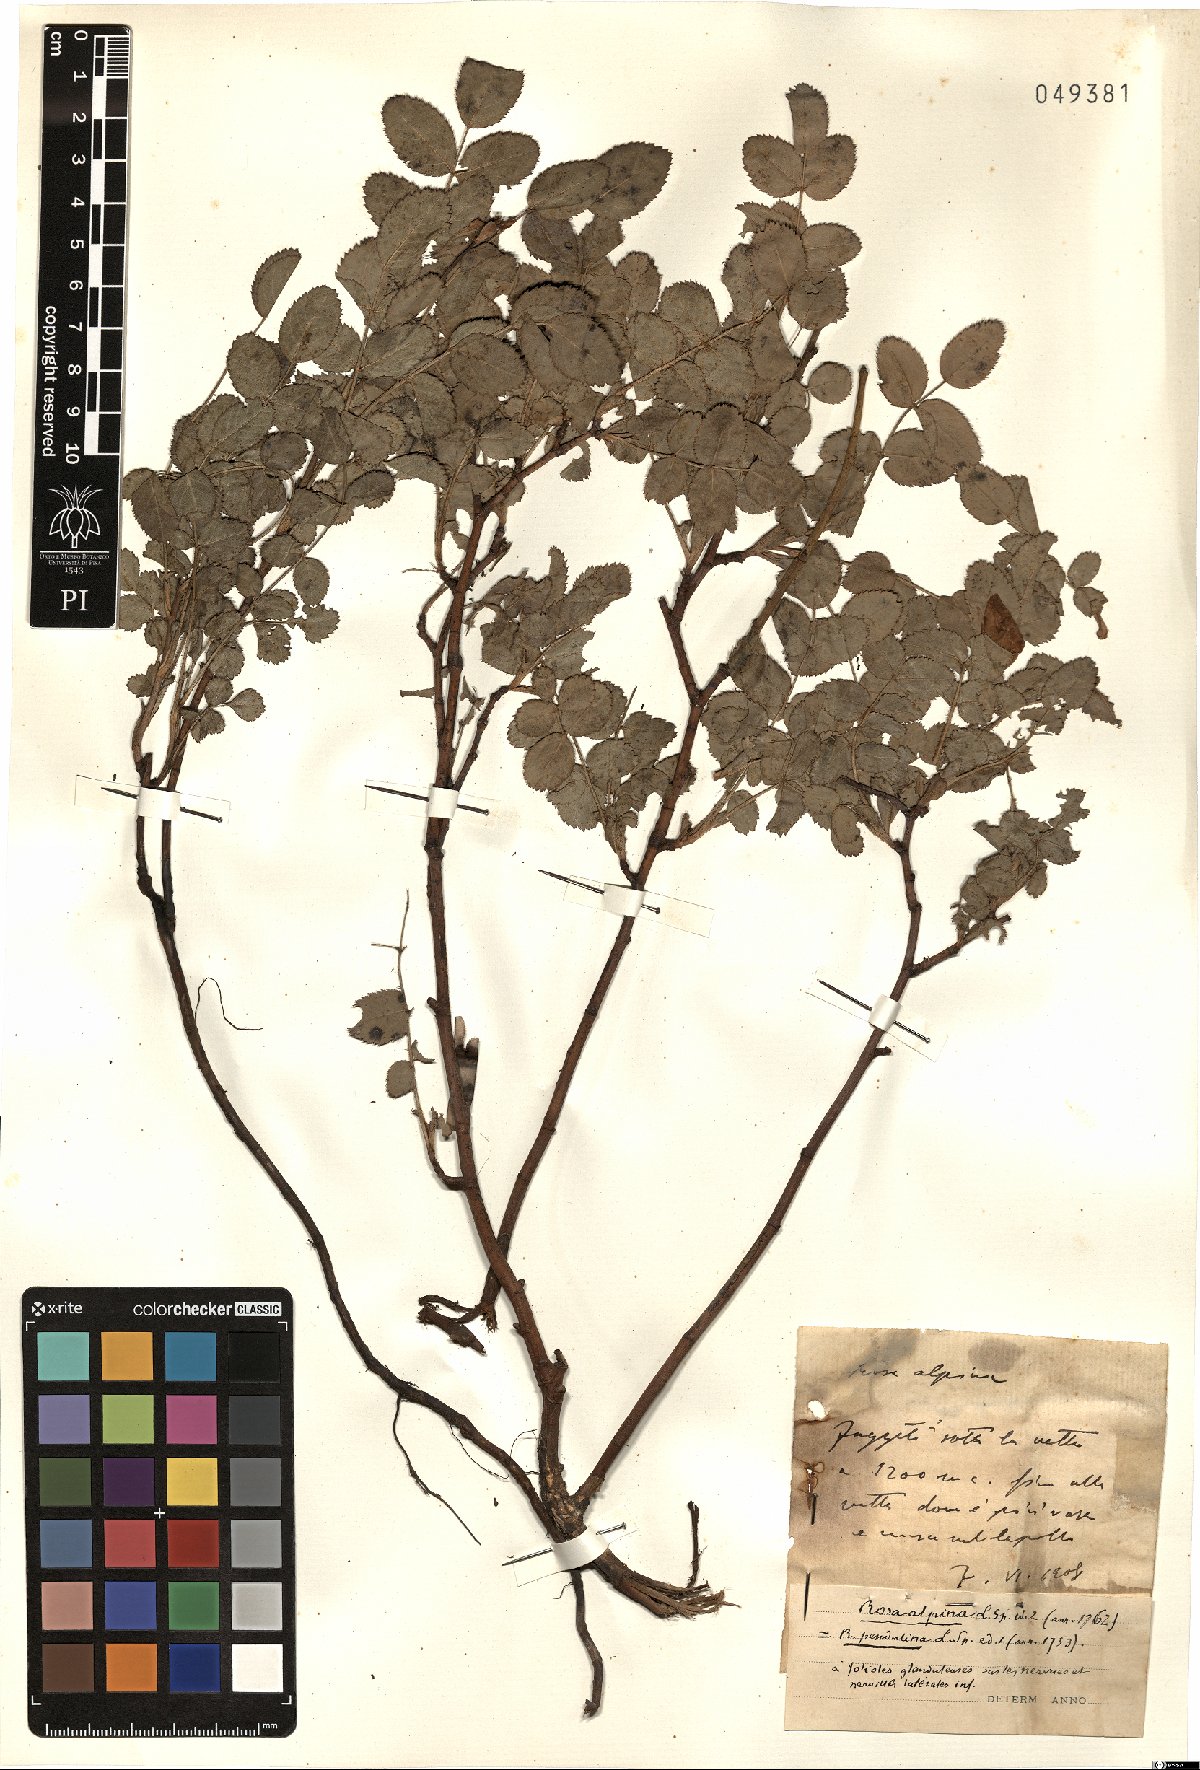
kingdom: Plantae
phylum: Tracheophyta
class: Magnoliopsida
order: Rosales
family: Rosaceae
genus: Rosa
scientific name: Rosa pendulina
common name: Alpine rose
